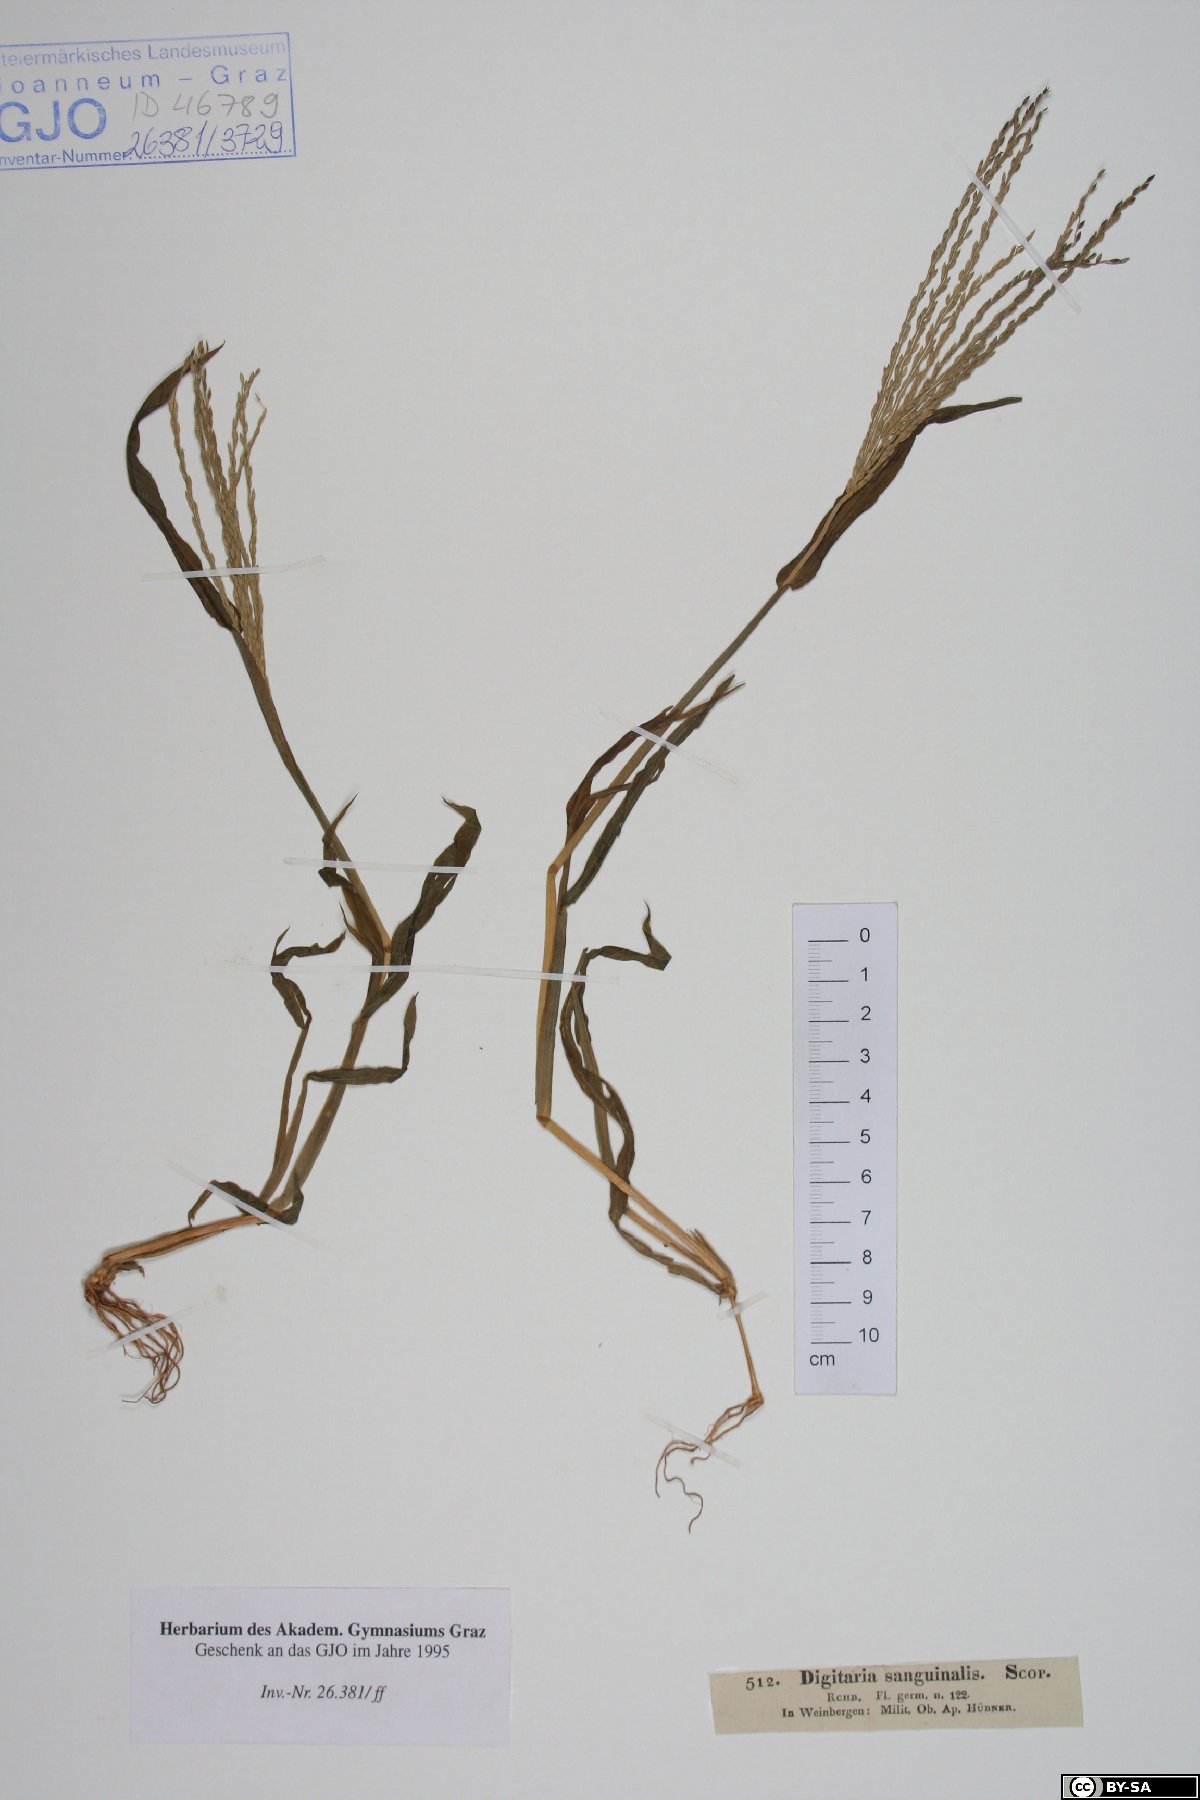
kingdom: Plantae
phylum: Tracheophyta
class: Liliopsida
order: Poales
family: Poaceae
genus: Digitaria
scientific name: Digitaria sanguinalis
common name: Hairy crabgrass
